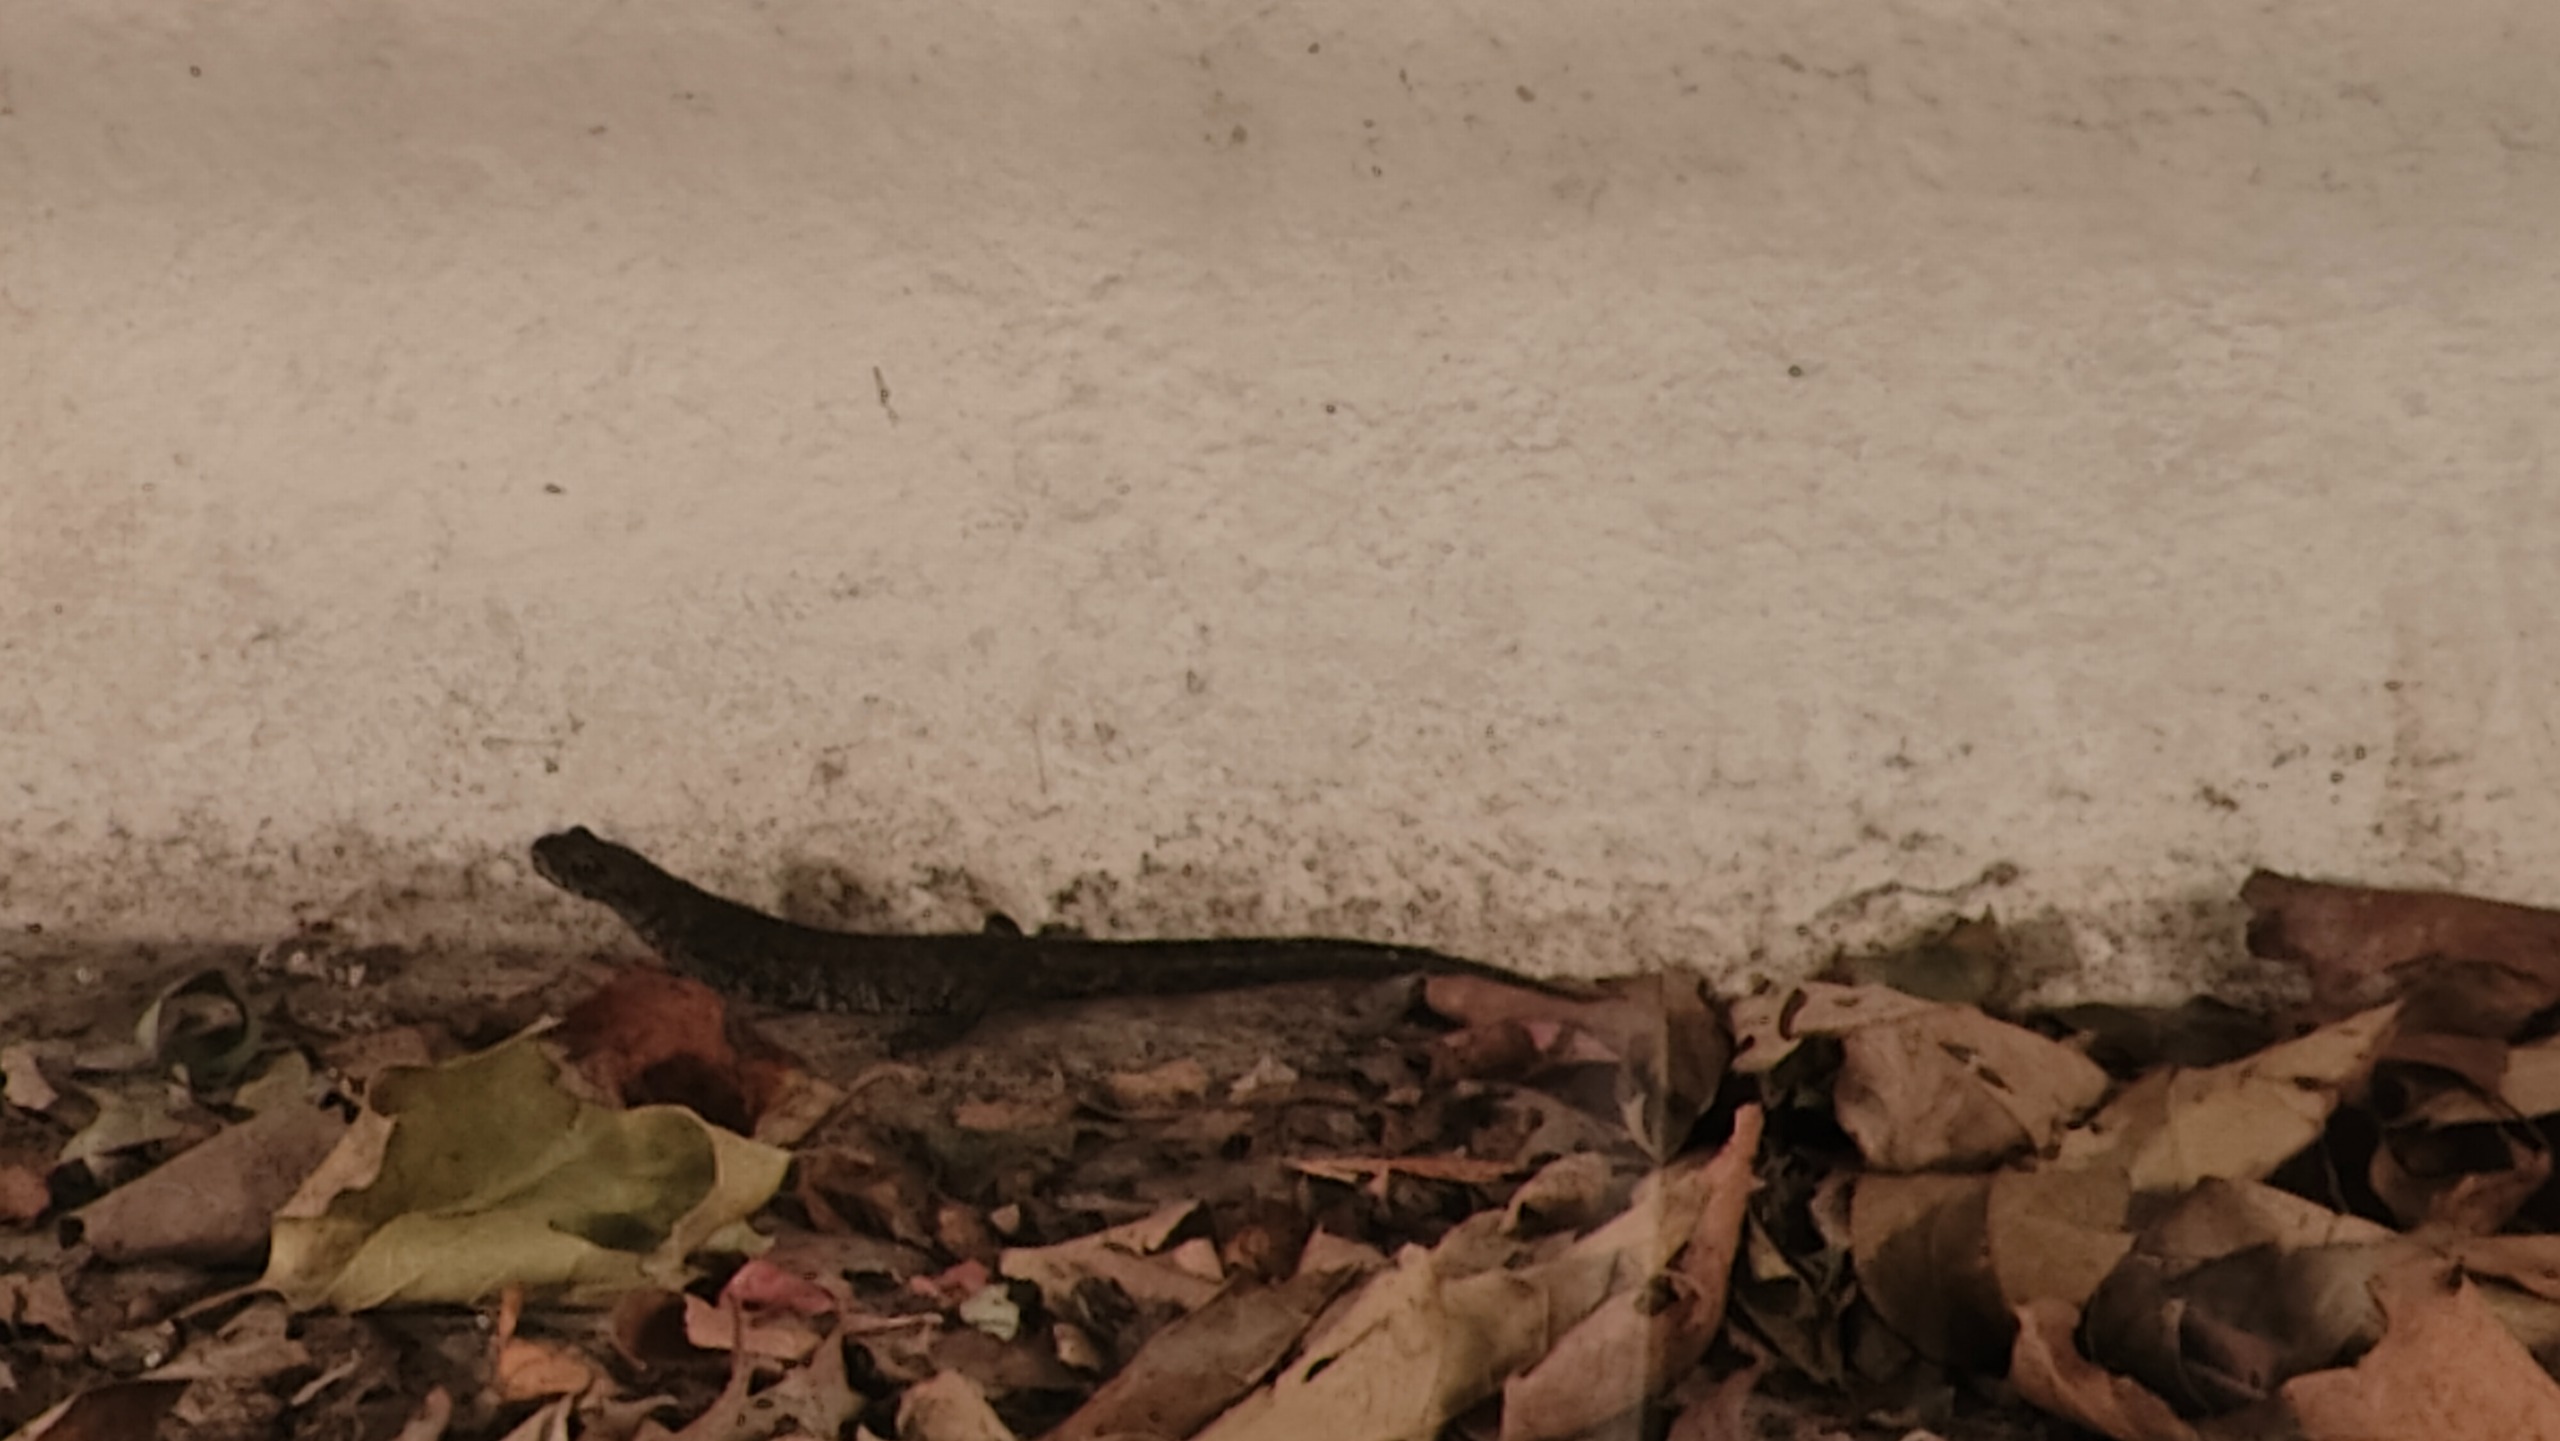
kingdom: Animalia
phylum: Chordata
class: Amphibia
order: Caudata
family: Salamandridae
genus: Triturus
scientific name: Triturus cristatus
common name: Stor vandsalamander
